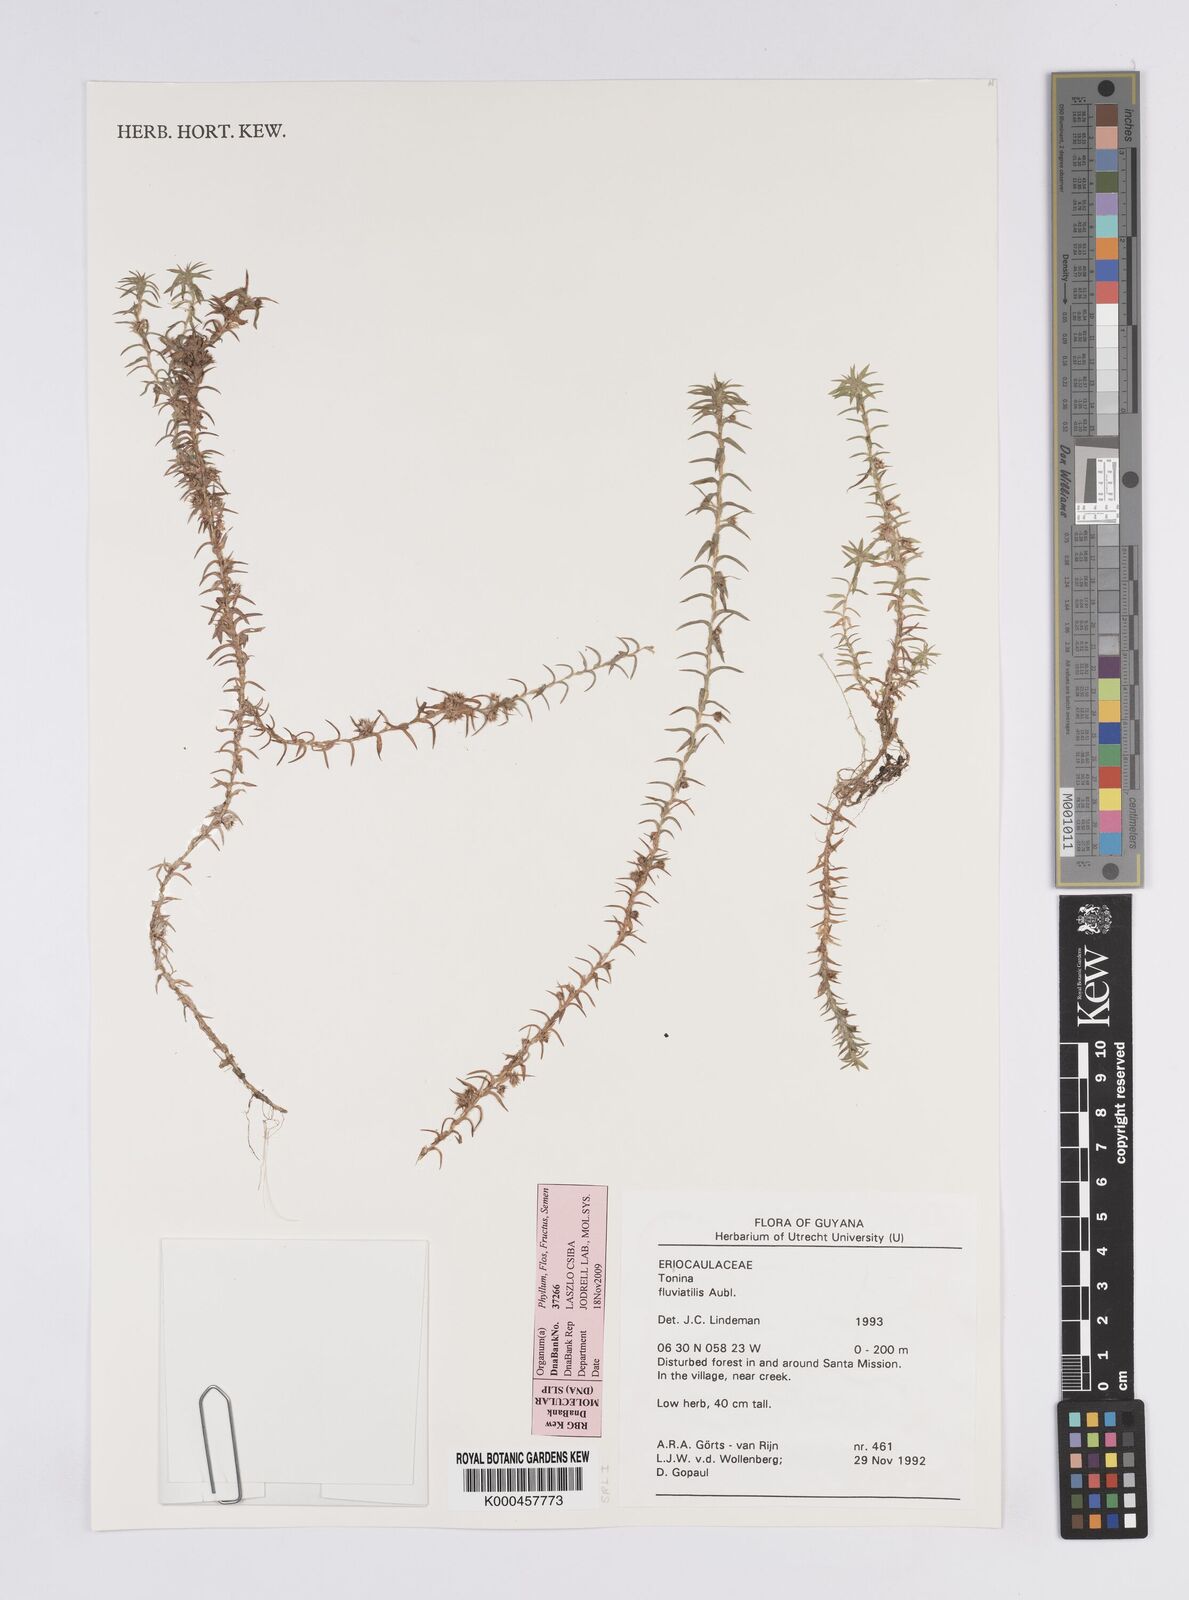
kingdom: Plantae
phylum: Tracheophyta
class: Liliopsida
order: Poales
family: Eriocaulaceae
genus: Paepalanthus
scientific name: Paepalanthus fluviatilis
